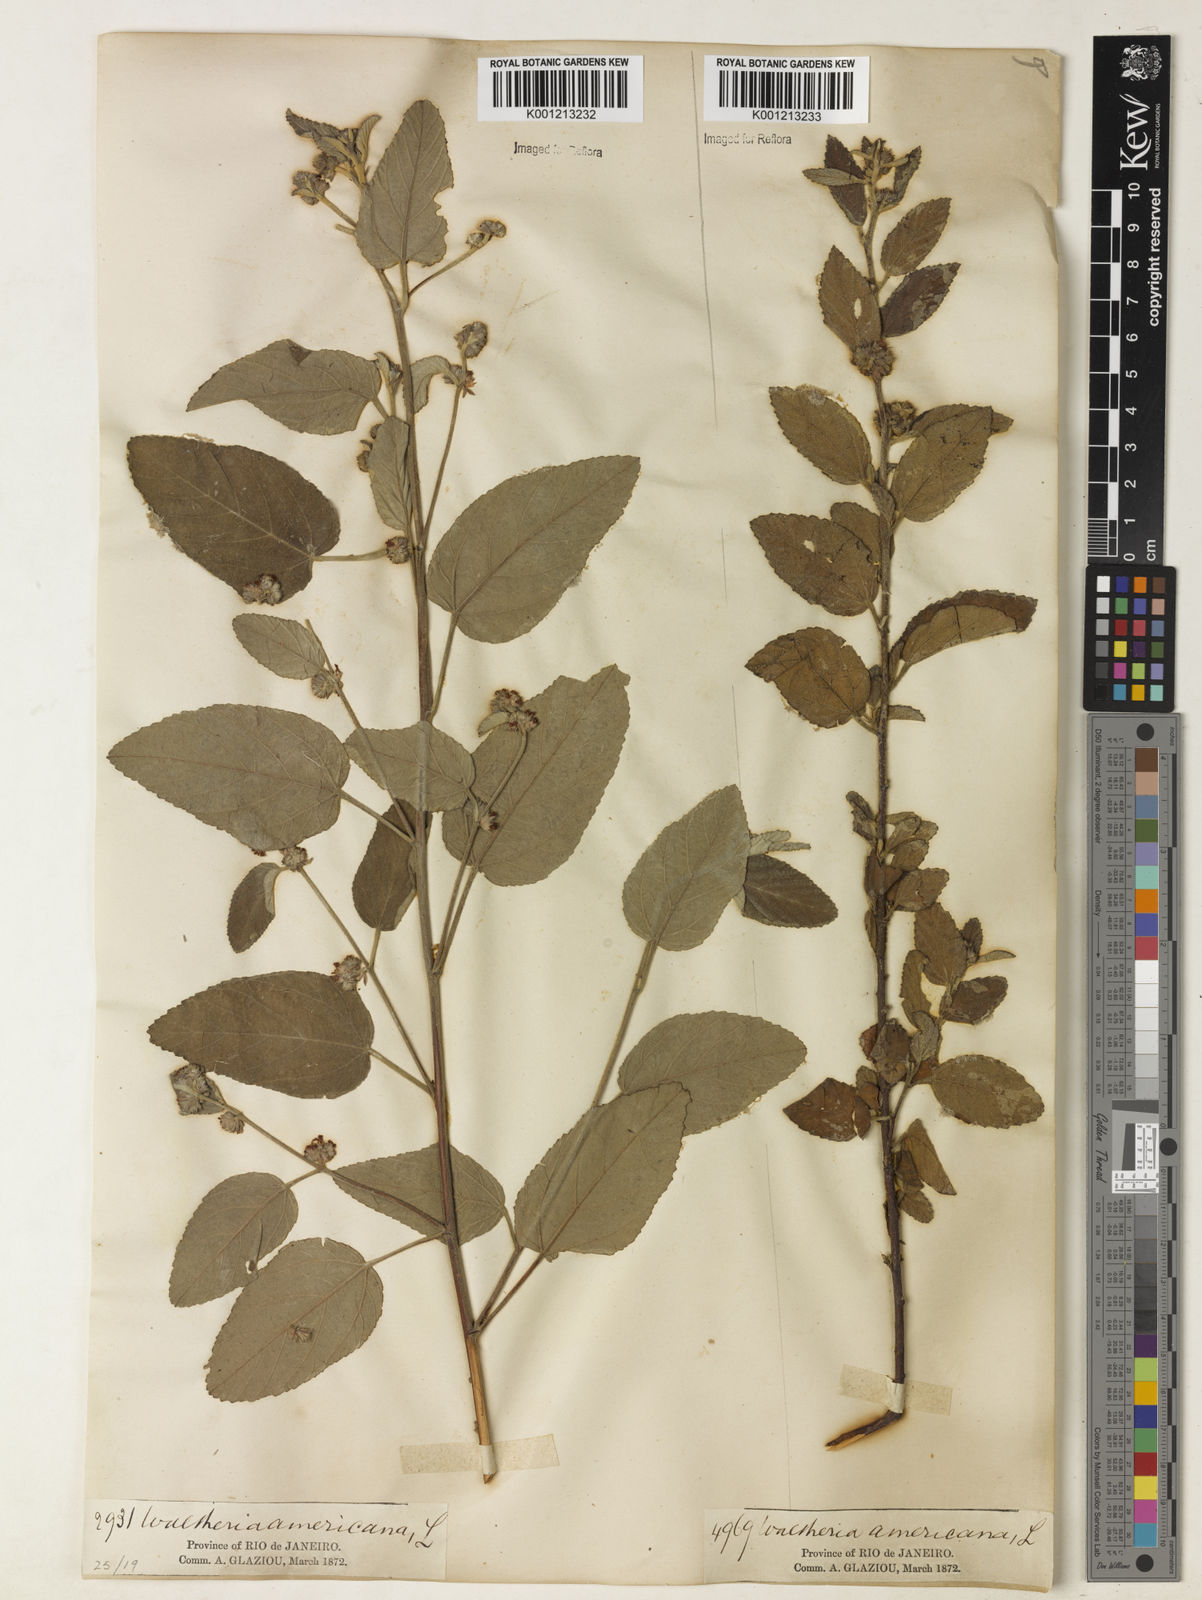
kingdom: Plantae
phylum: Tracheophyta
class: Magnoliopsida
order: Malvales
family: Malvaceae
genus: Waltheria
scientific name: Waltheria indica
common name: Leather-coat
